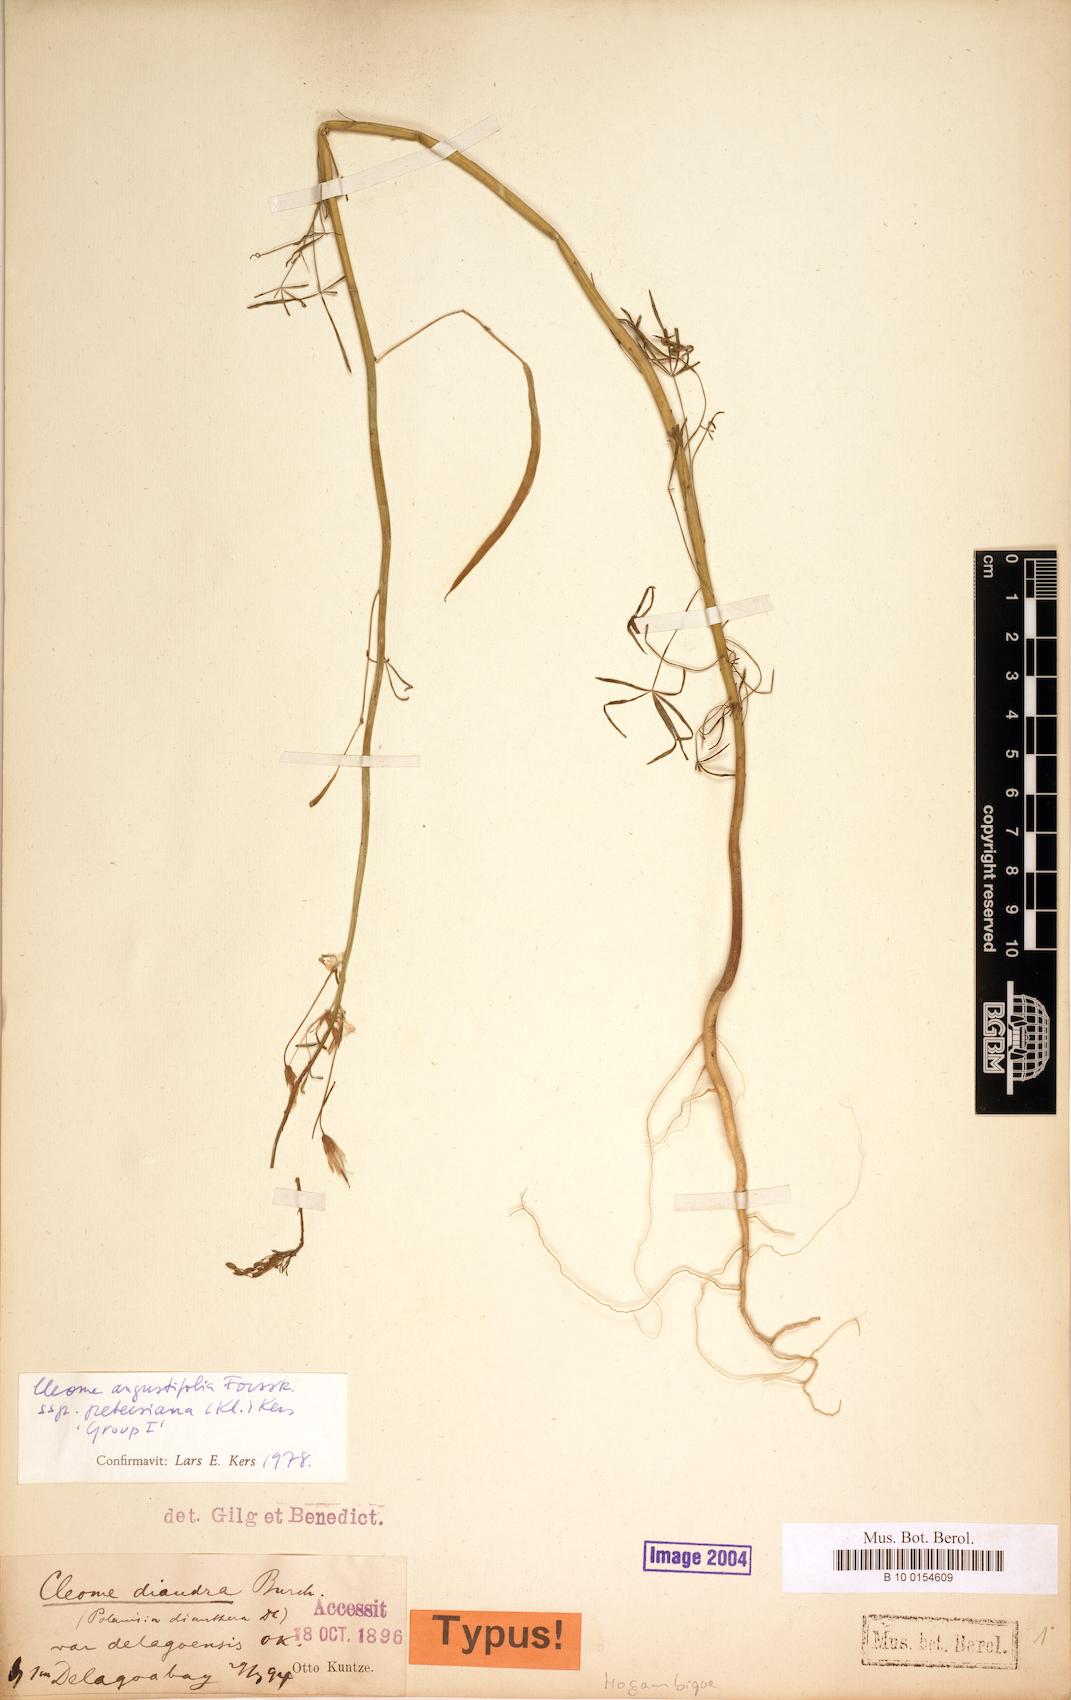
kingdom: Plantae
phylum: Tracheophyta
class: Magnoliopsida
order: Brassicales
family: Cleomaceae
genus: Coalisina
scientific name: Coalisina angustifolia
